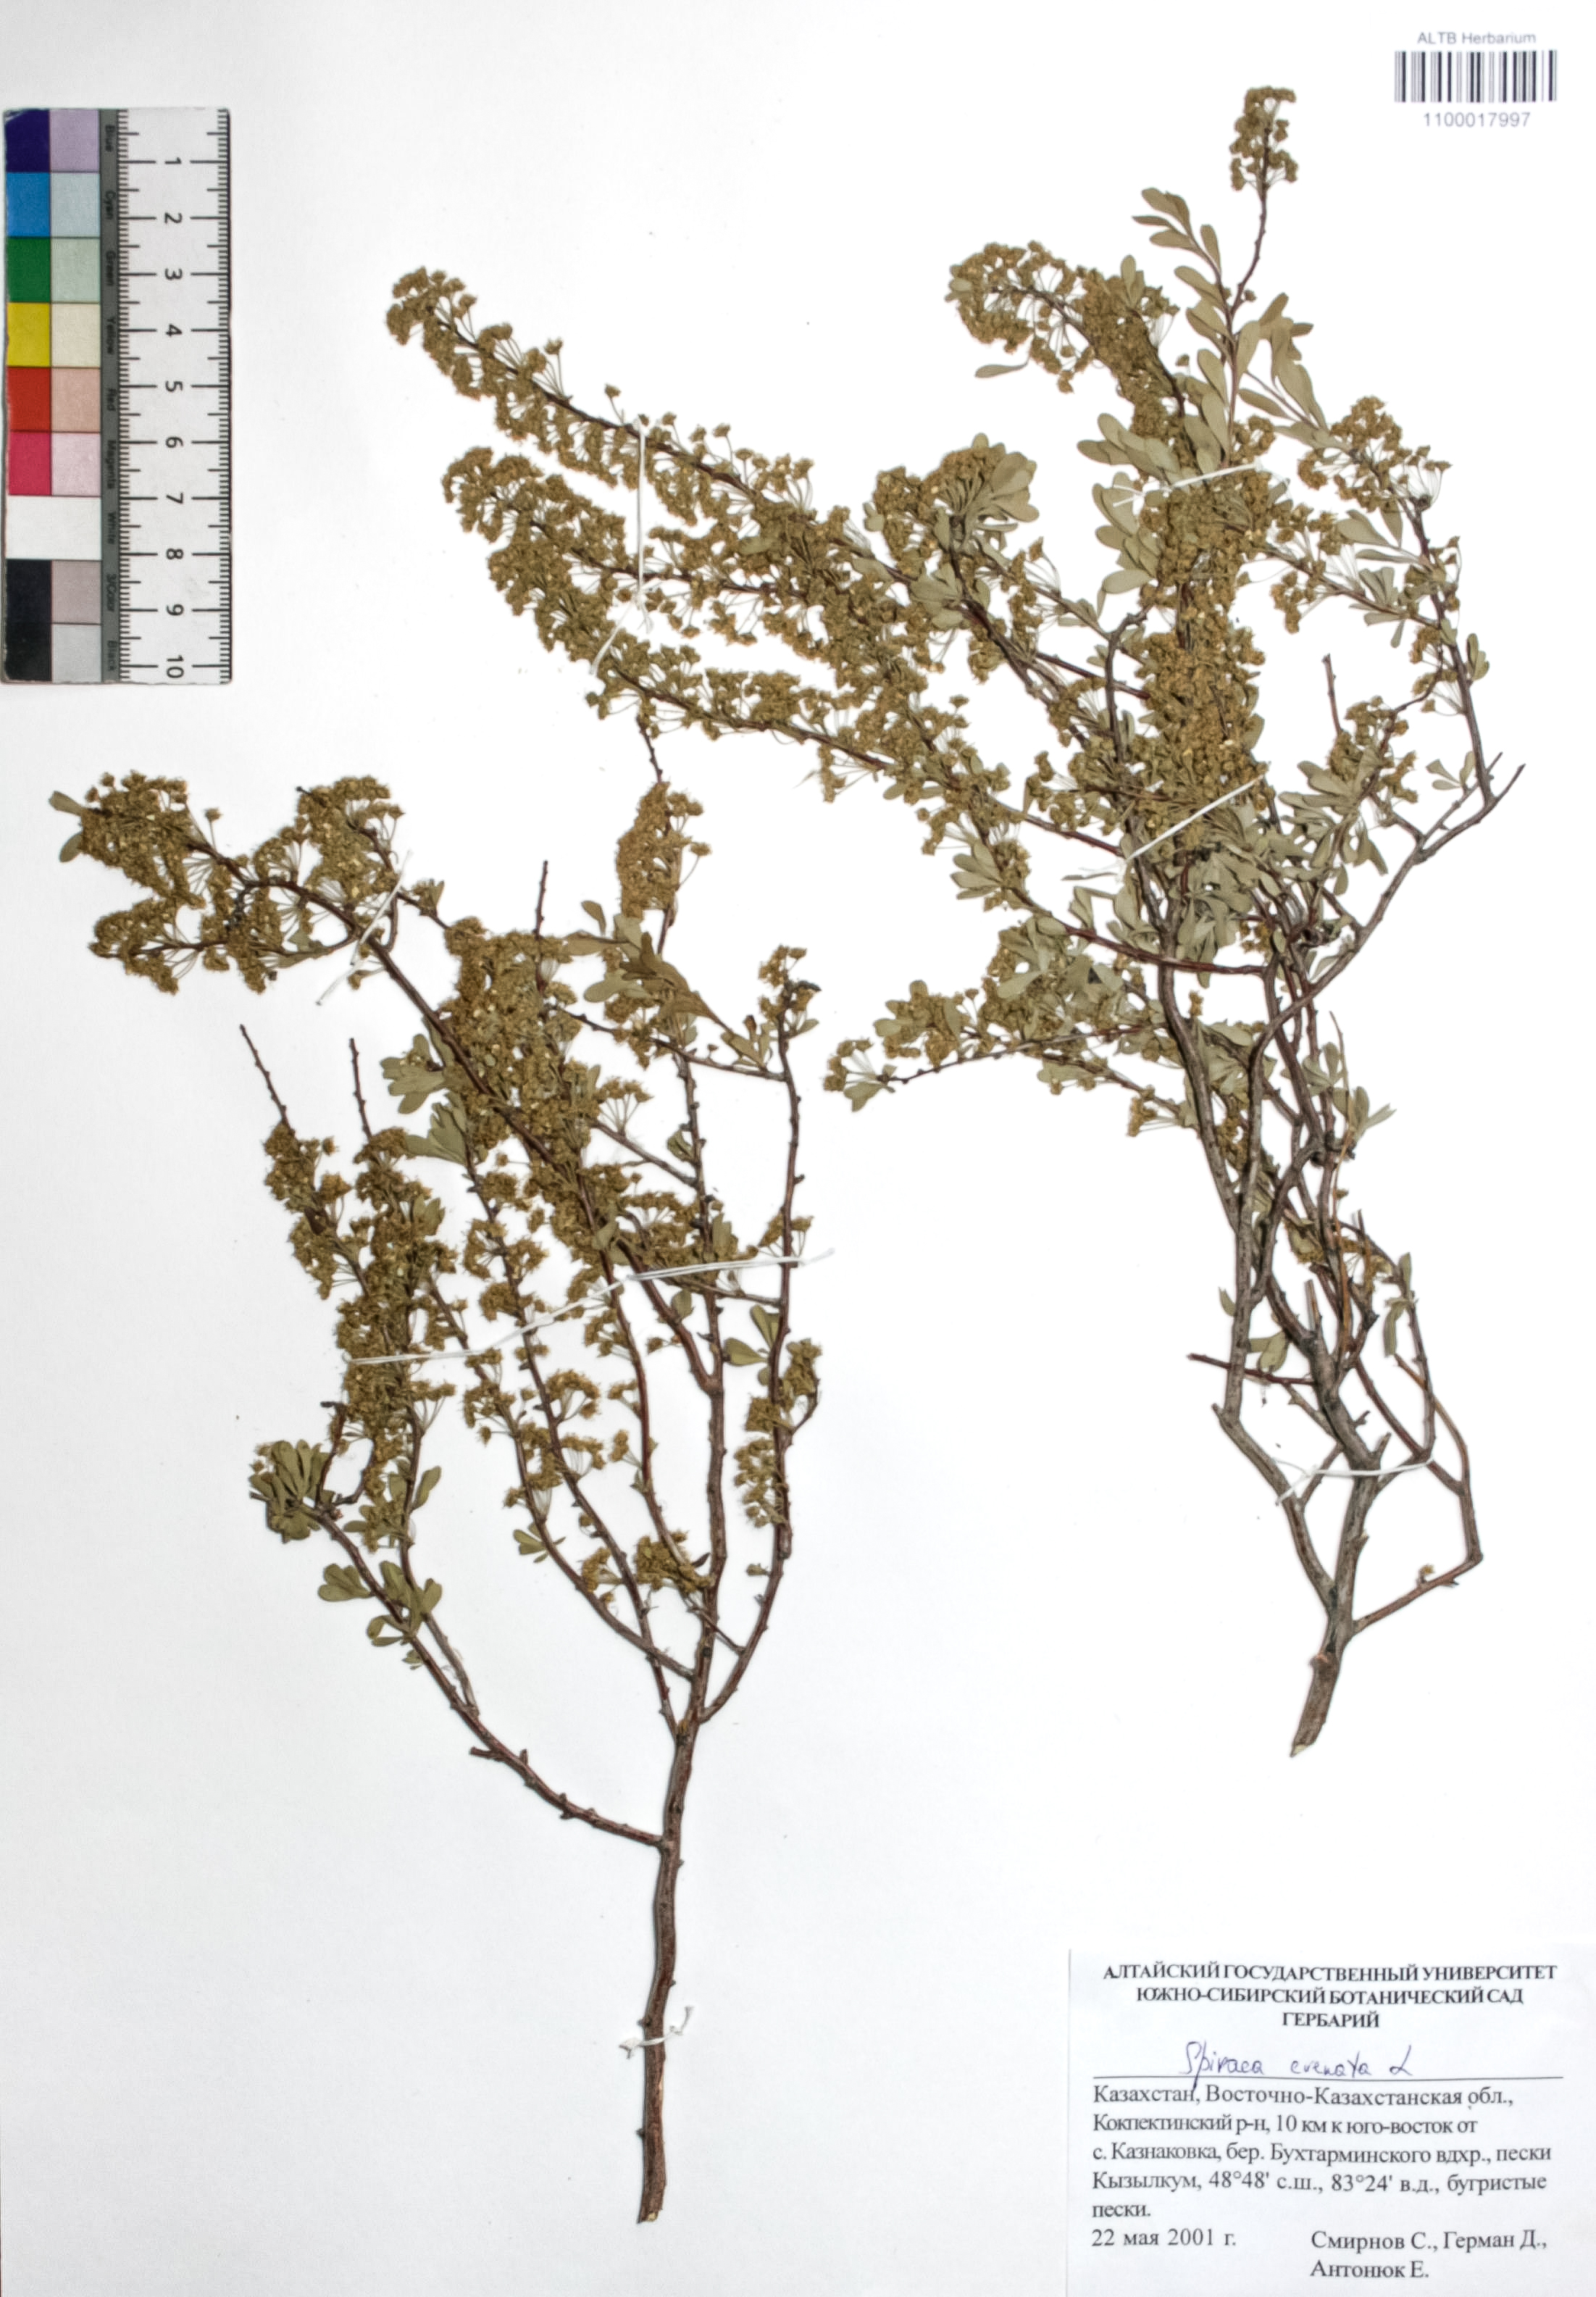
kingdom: Plantae
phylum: Tracheophyta
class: Magnoliopsida
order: Rosales
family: Rosaceae
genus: Spiraea
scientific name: Spiraea crenata
